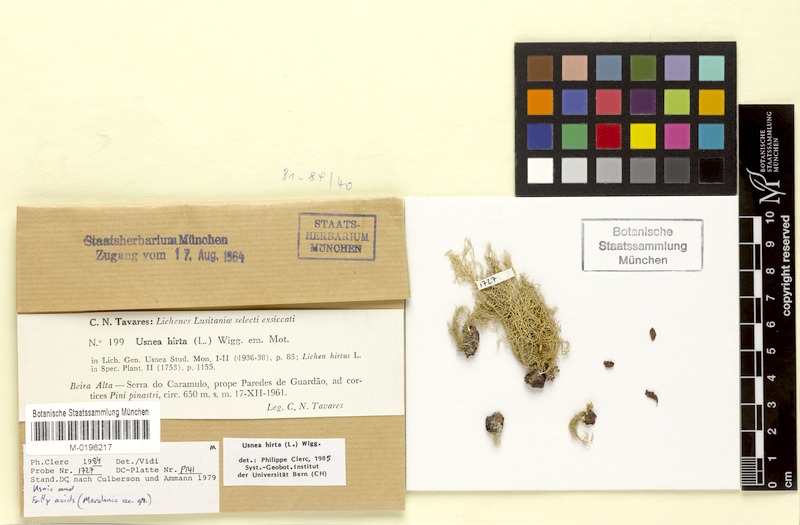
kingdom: Fungi
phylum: Ascomycota
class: Lecanoromycetes
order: Lecanorales
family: Parmeliaceae
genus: Usnea
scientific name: Usnea hirta
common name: Bristly beard lichen
